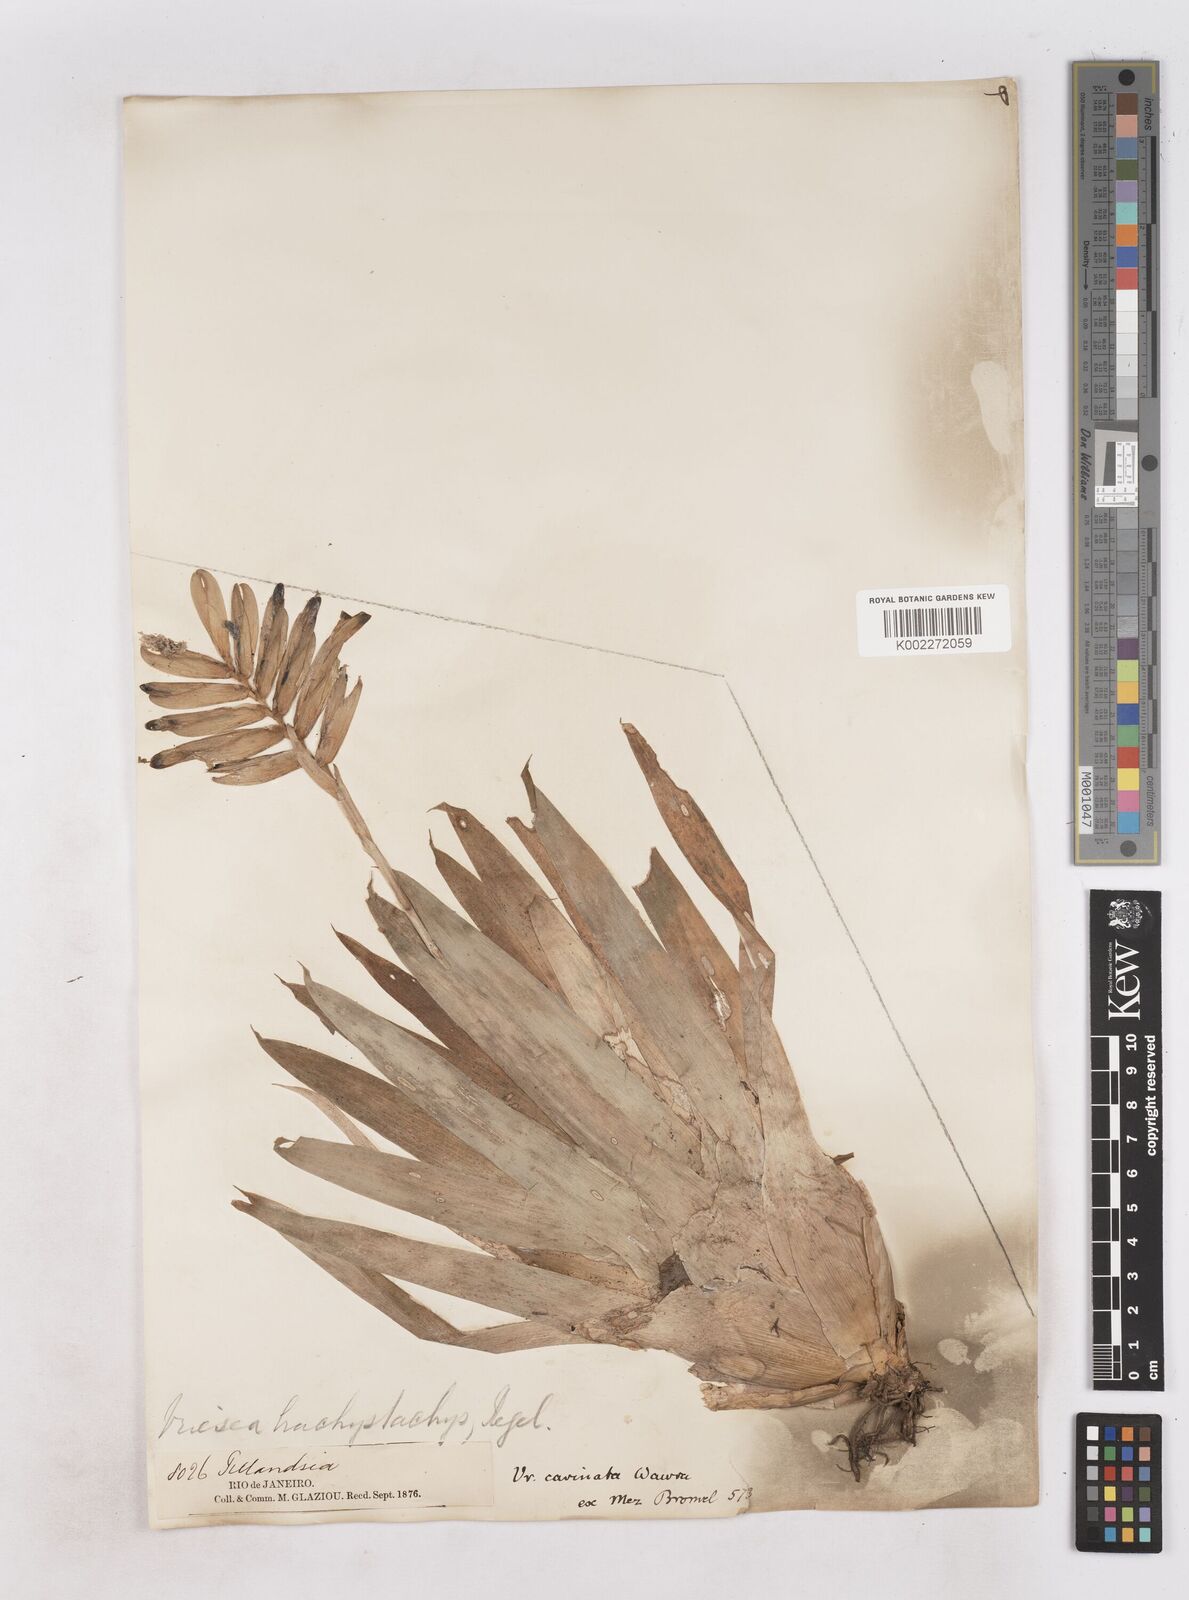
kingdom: Plantae
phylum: Tracheophyta
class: Liliopsida
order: Poales
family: Bromeliaceae
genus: Vriesea
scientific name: Vriesea carinata
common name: Lobster-claws
